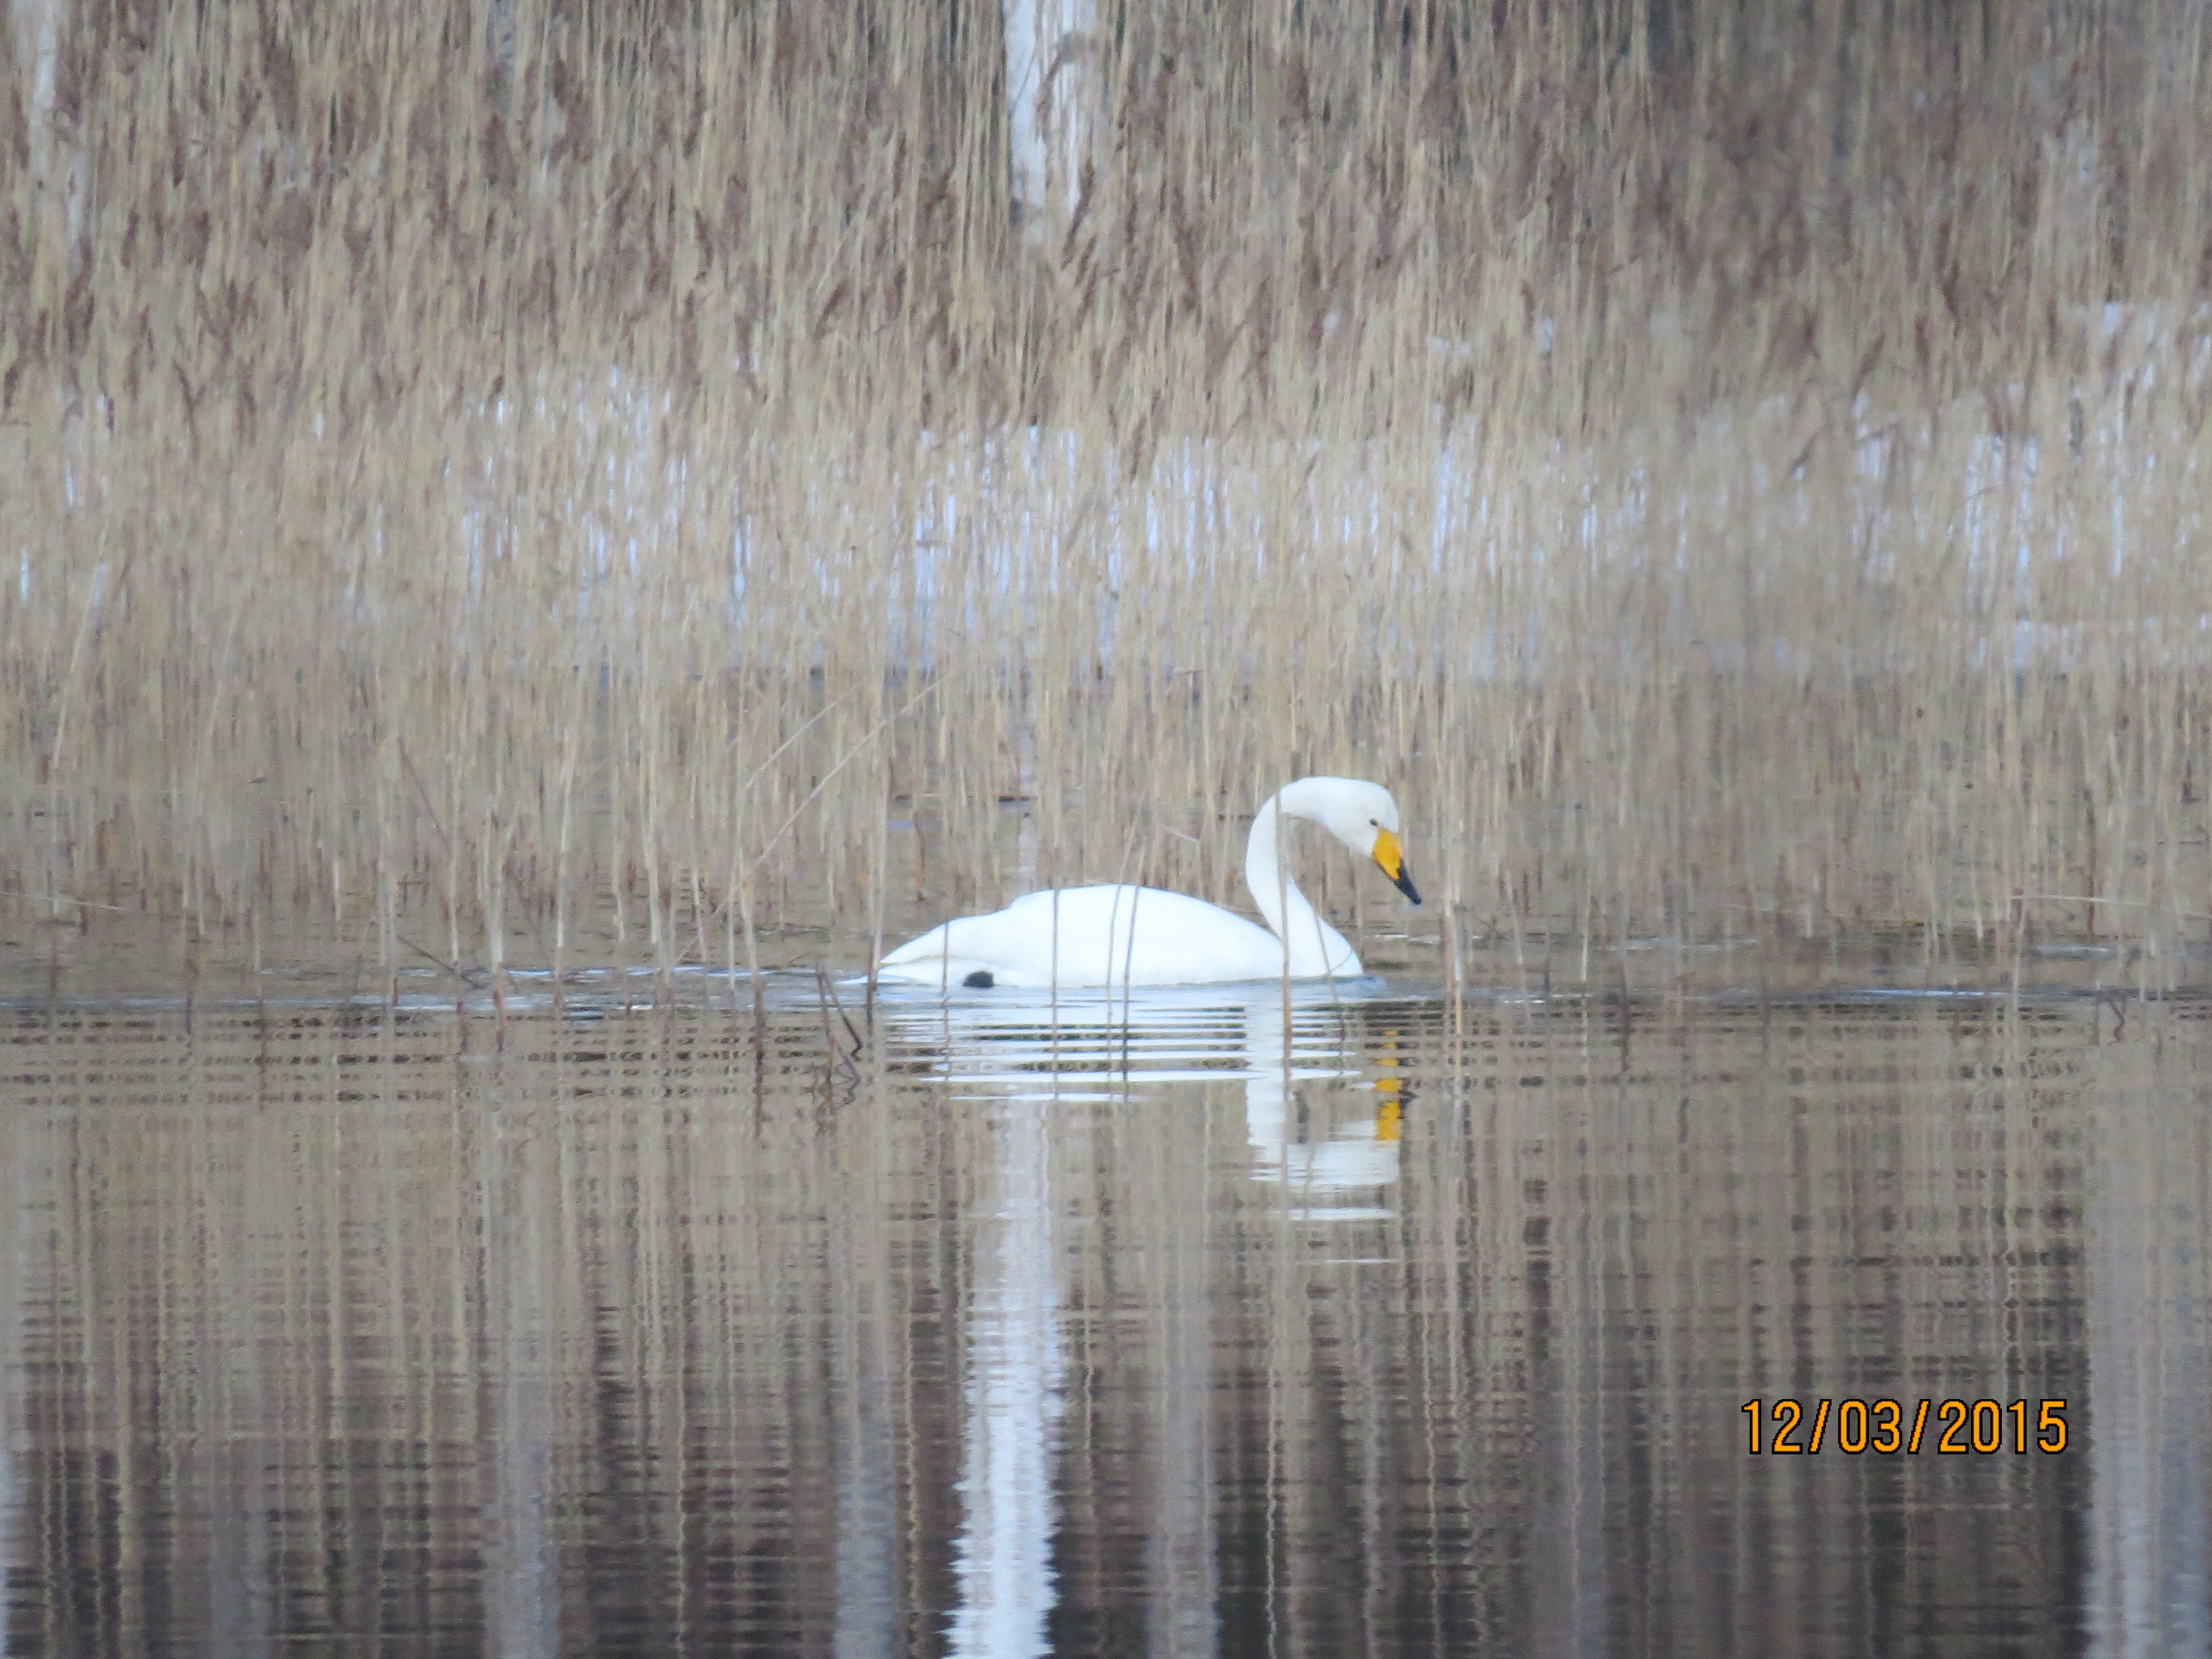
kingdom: Animalia
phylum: Chordata
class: Aves
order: Anseriformes
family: Anatidae
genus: Cygnus
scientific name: Cygnus cygnus
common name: Whooper swan
